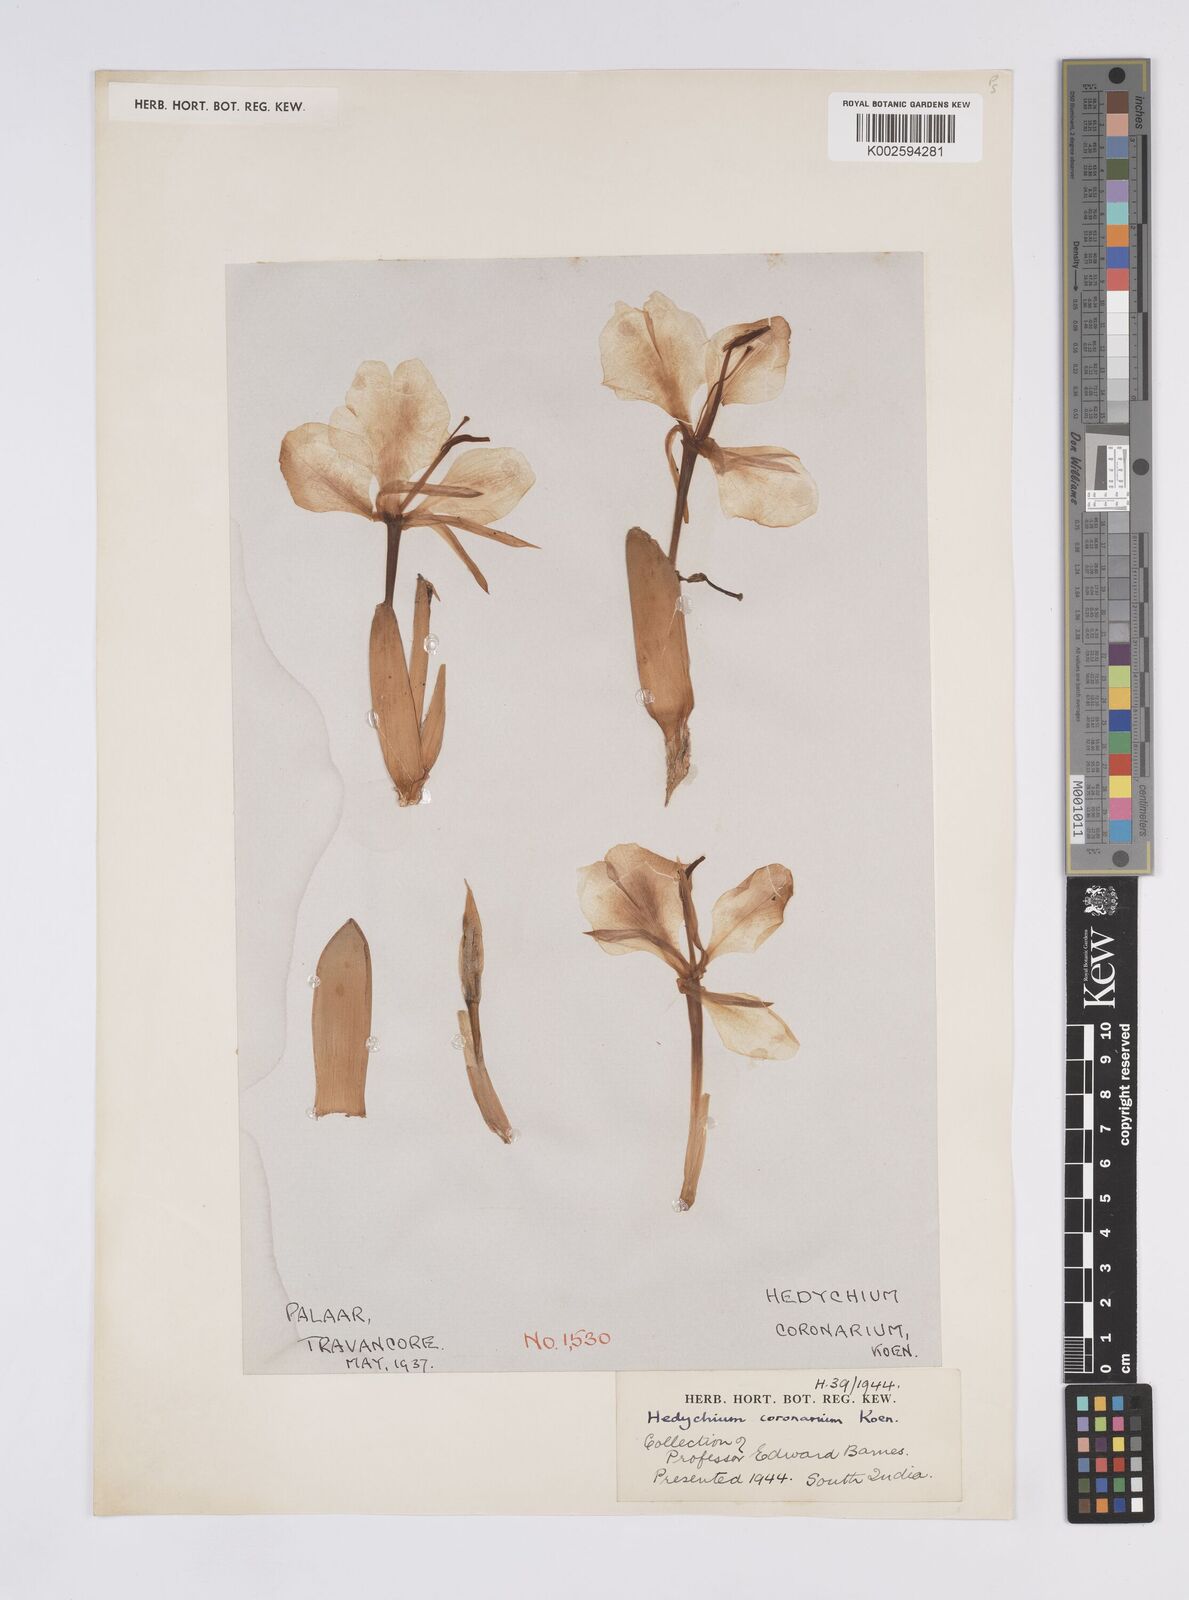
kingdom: Plantae
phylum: Tracheophyta
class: Liliopsida
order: Zingiberales
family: Zingiberaceae
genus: Hedychium
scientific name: Hedychium coronarium
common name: White garland-lily
